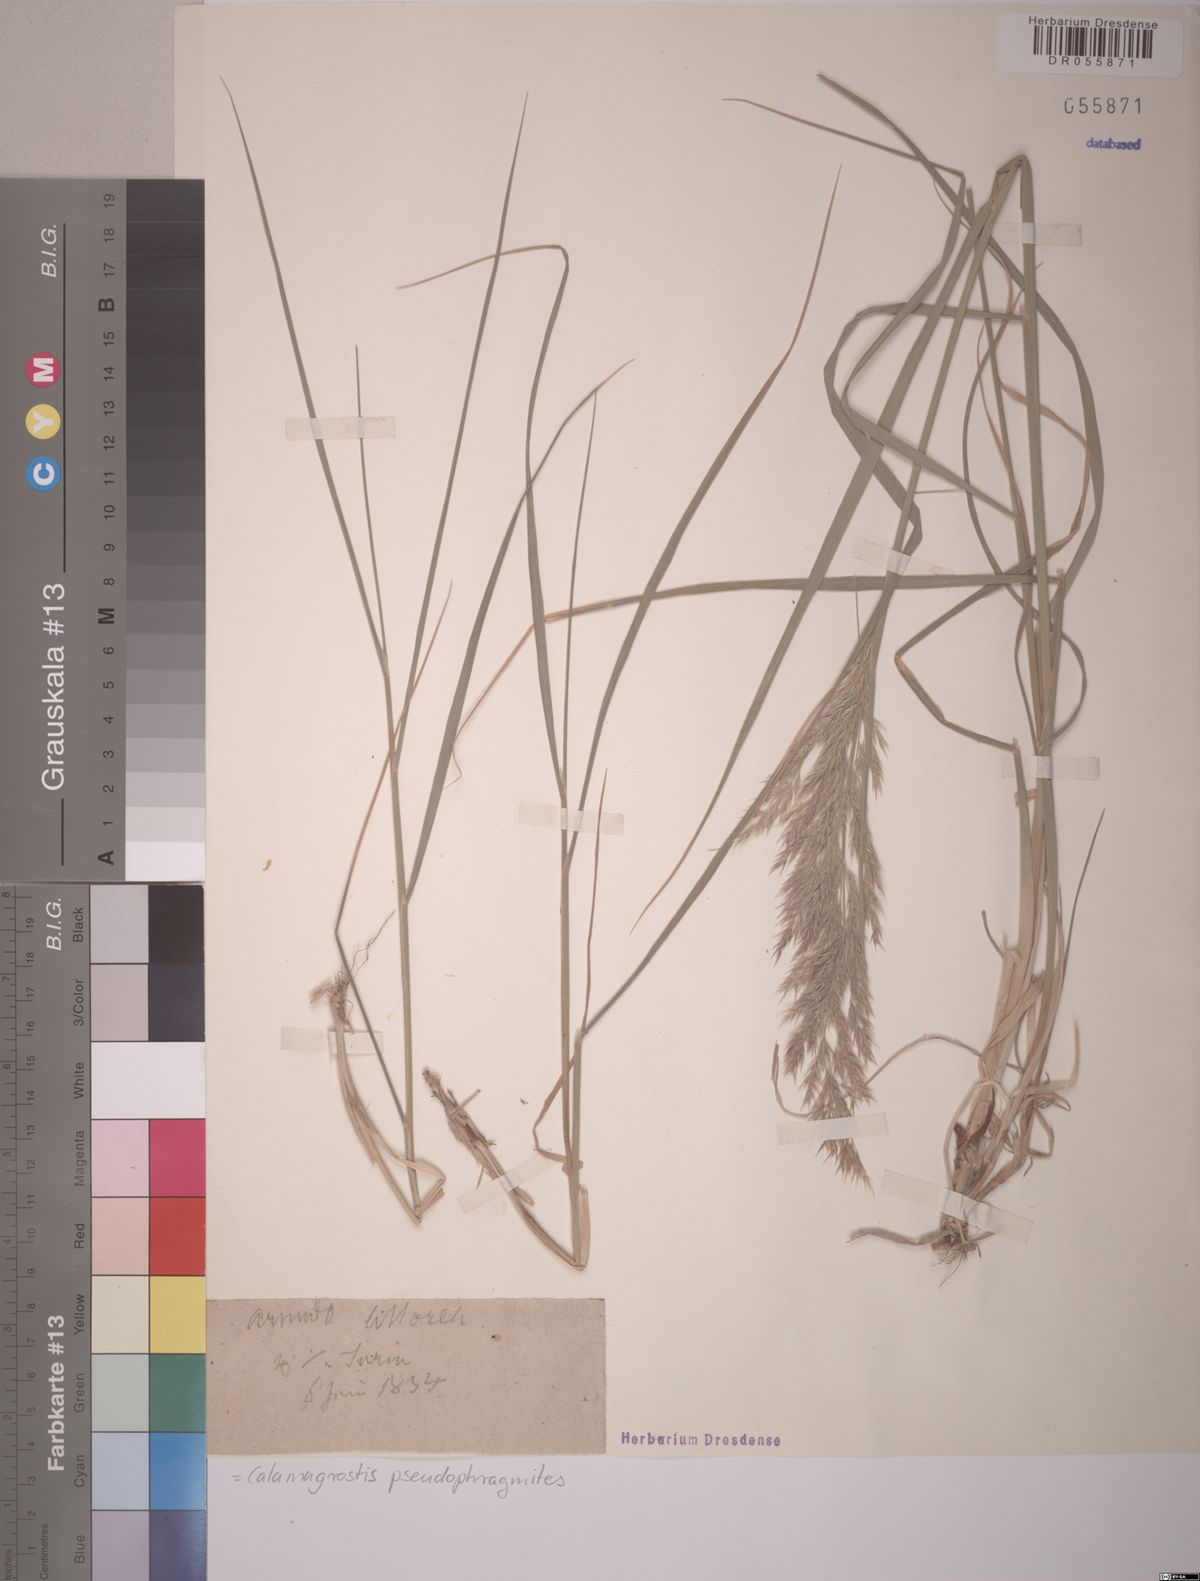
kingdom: Plantae
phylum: Tracheophyta
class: Liliopsida
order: Poales
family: Poaceae
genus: Calamagrostis
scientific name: Calamagrostis pseudophragmites
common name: Coastal small-reed
